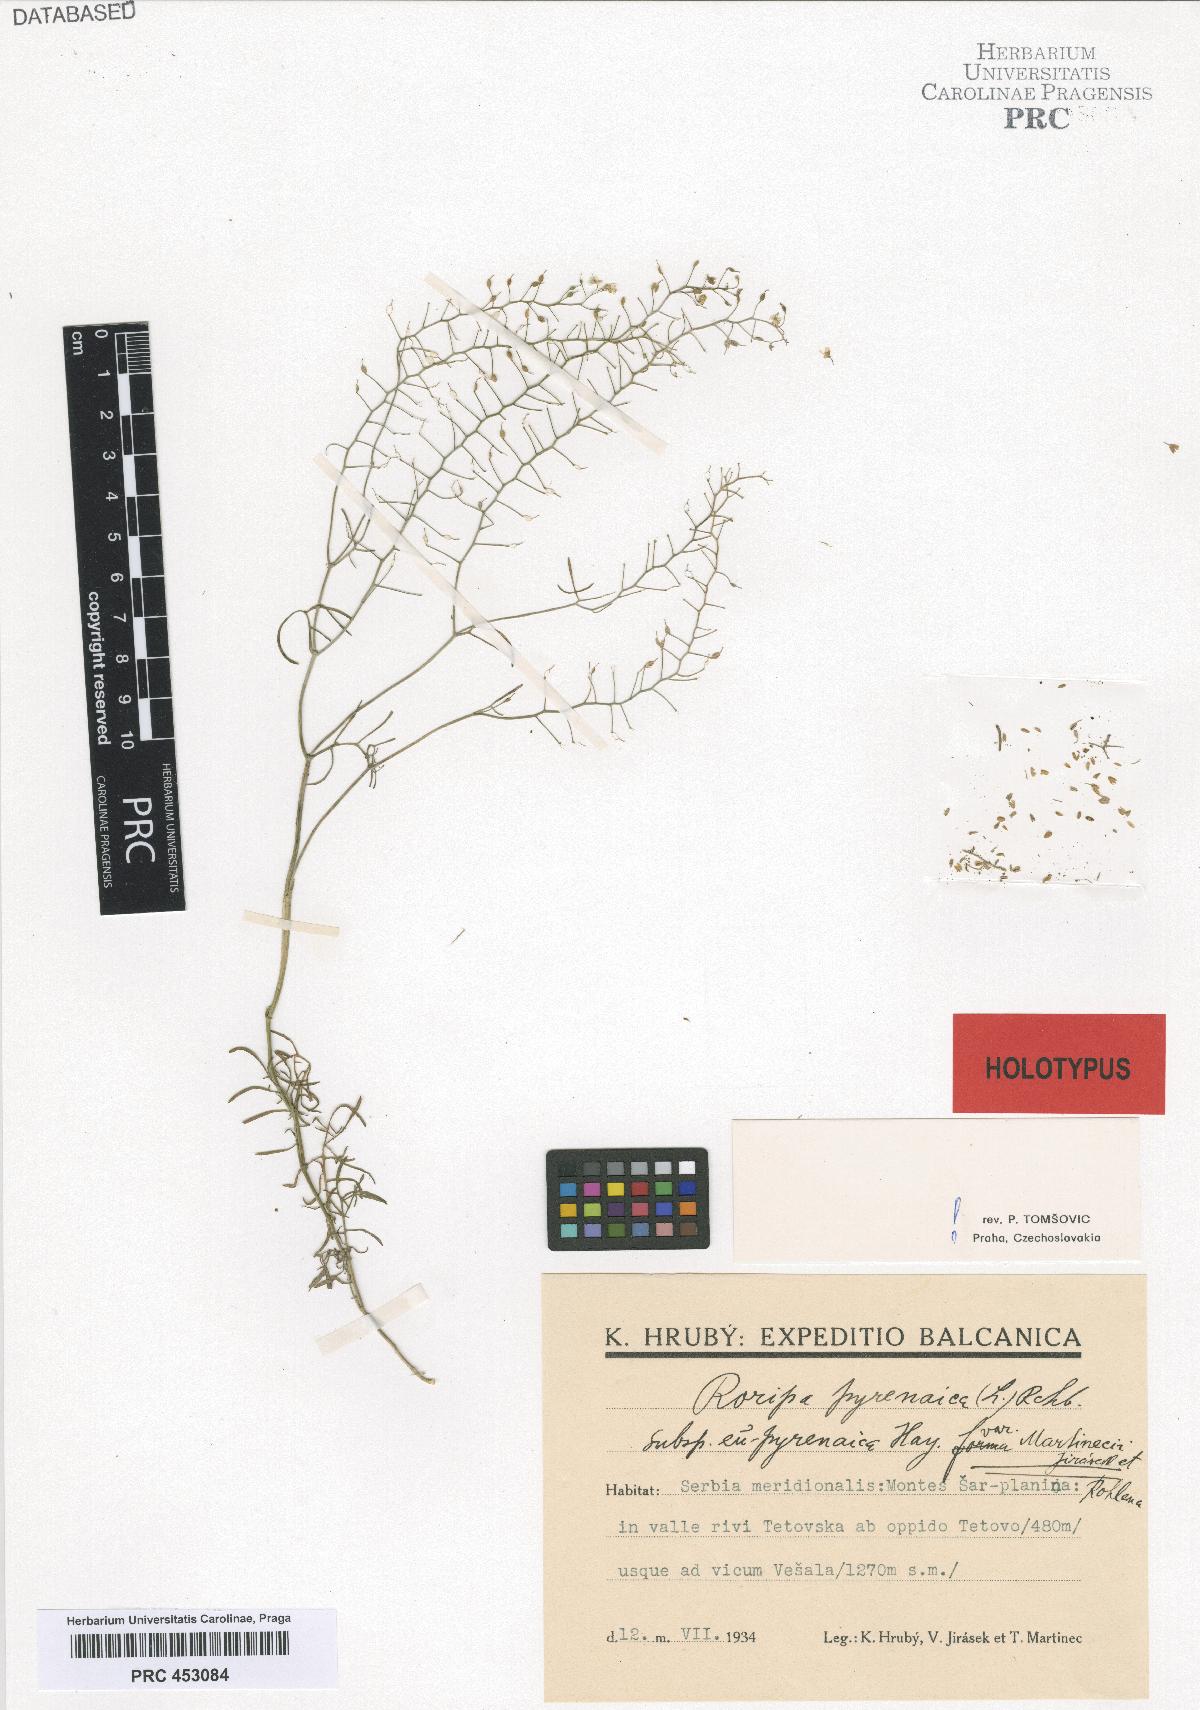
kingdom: Plantae
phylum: Tracheophyta
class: Magnoliopsida
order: Brassicales
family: Brassicaceae
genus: Rorippa
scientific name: Rorippa pyrenaica
